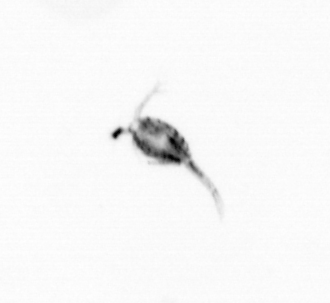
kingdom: Animalia
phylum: Arthropoda
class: Copepoda
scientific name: Copepoda
